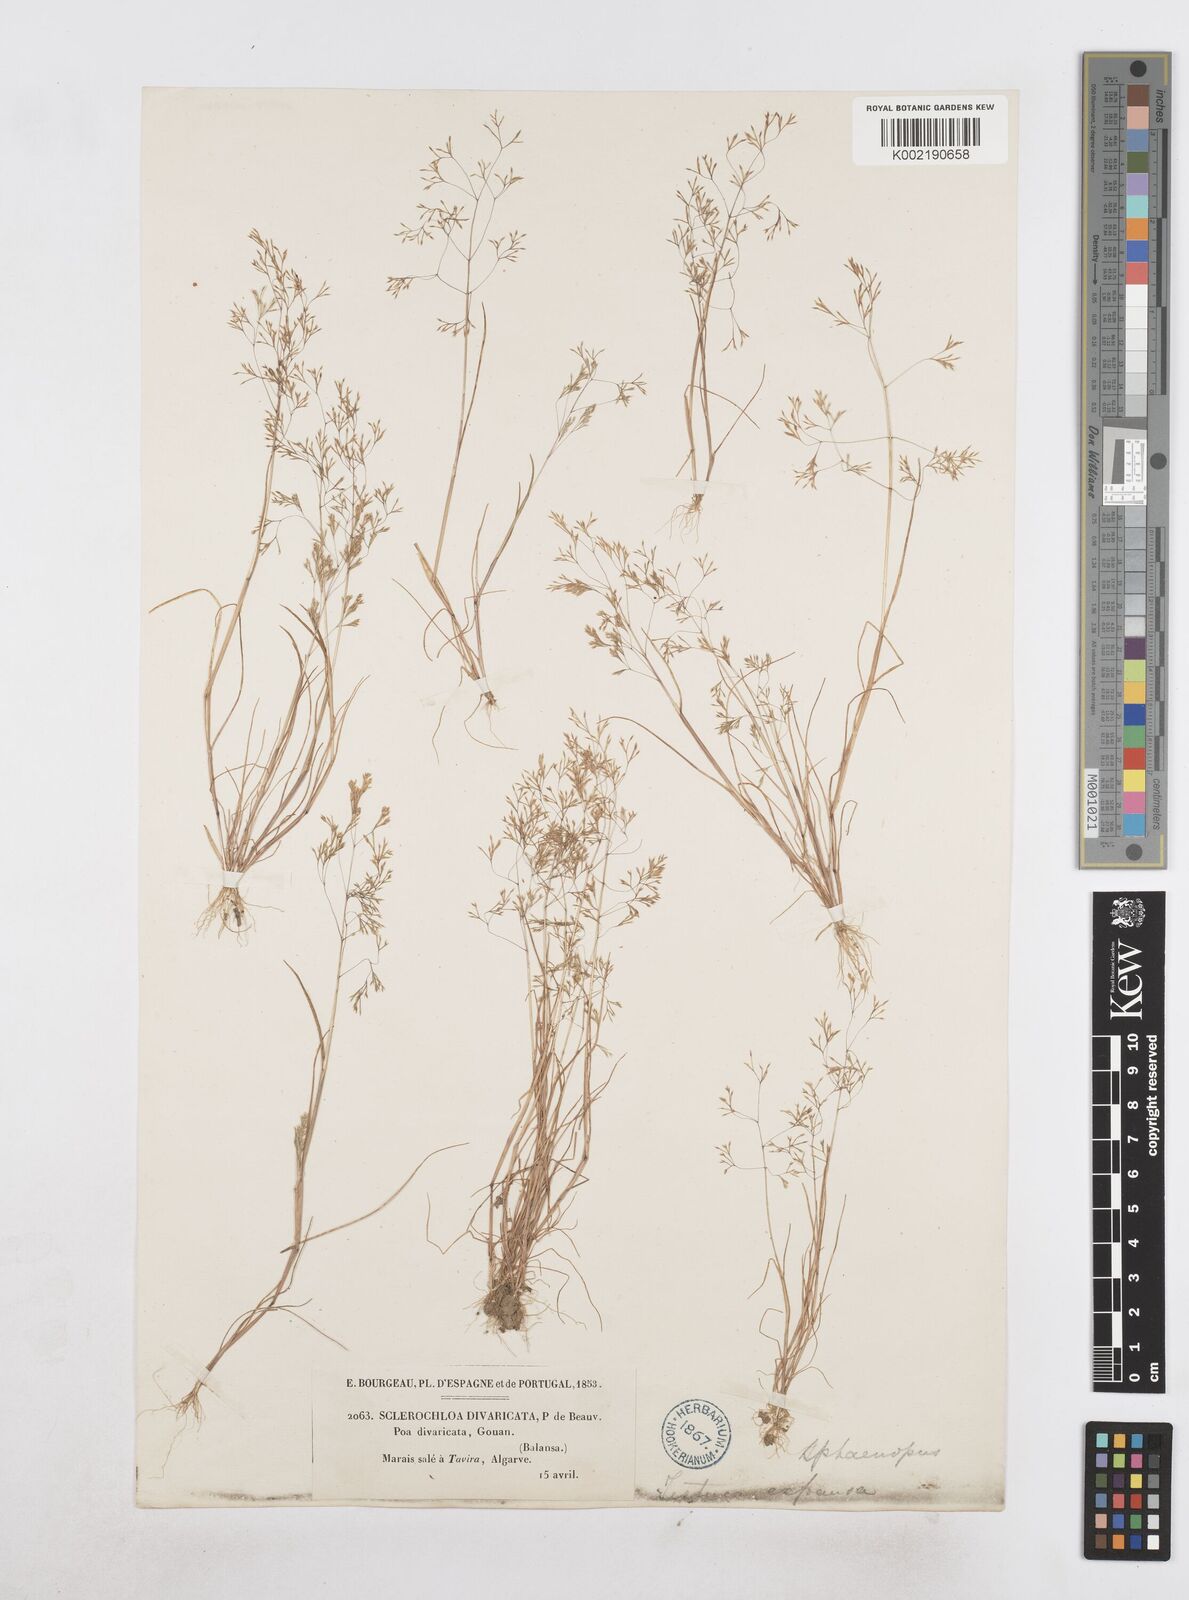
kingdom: Plantae
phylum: Tracheophyta
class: Liliopsida
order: Poales
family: Poaceae
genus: Sphenopus
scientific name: Sphenopus divaricatus
